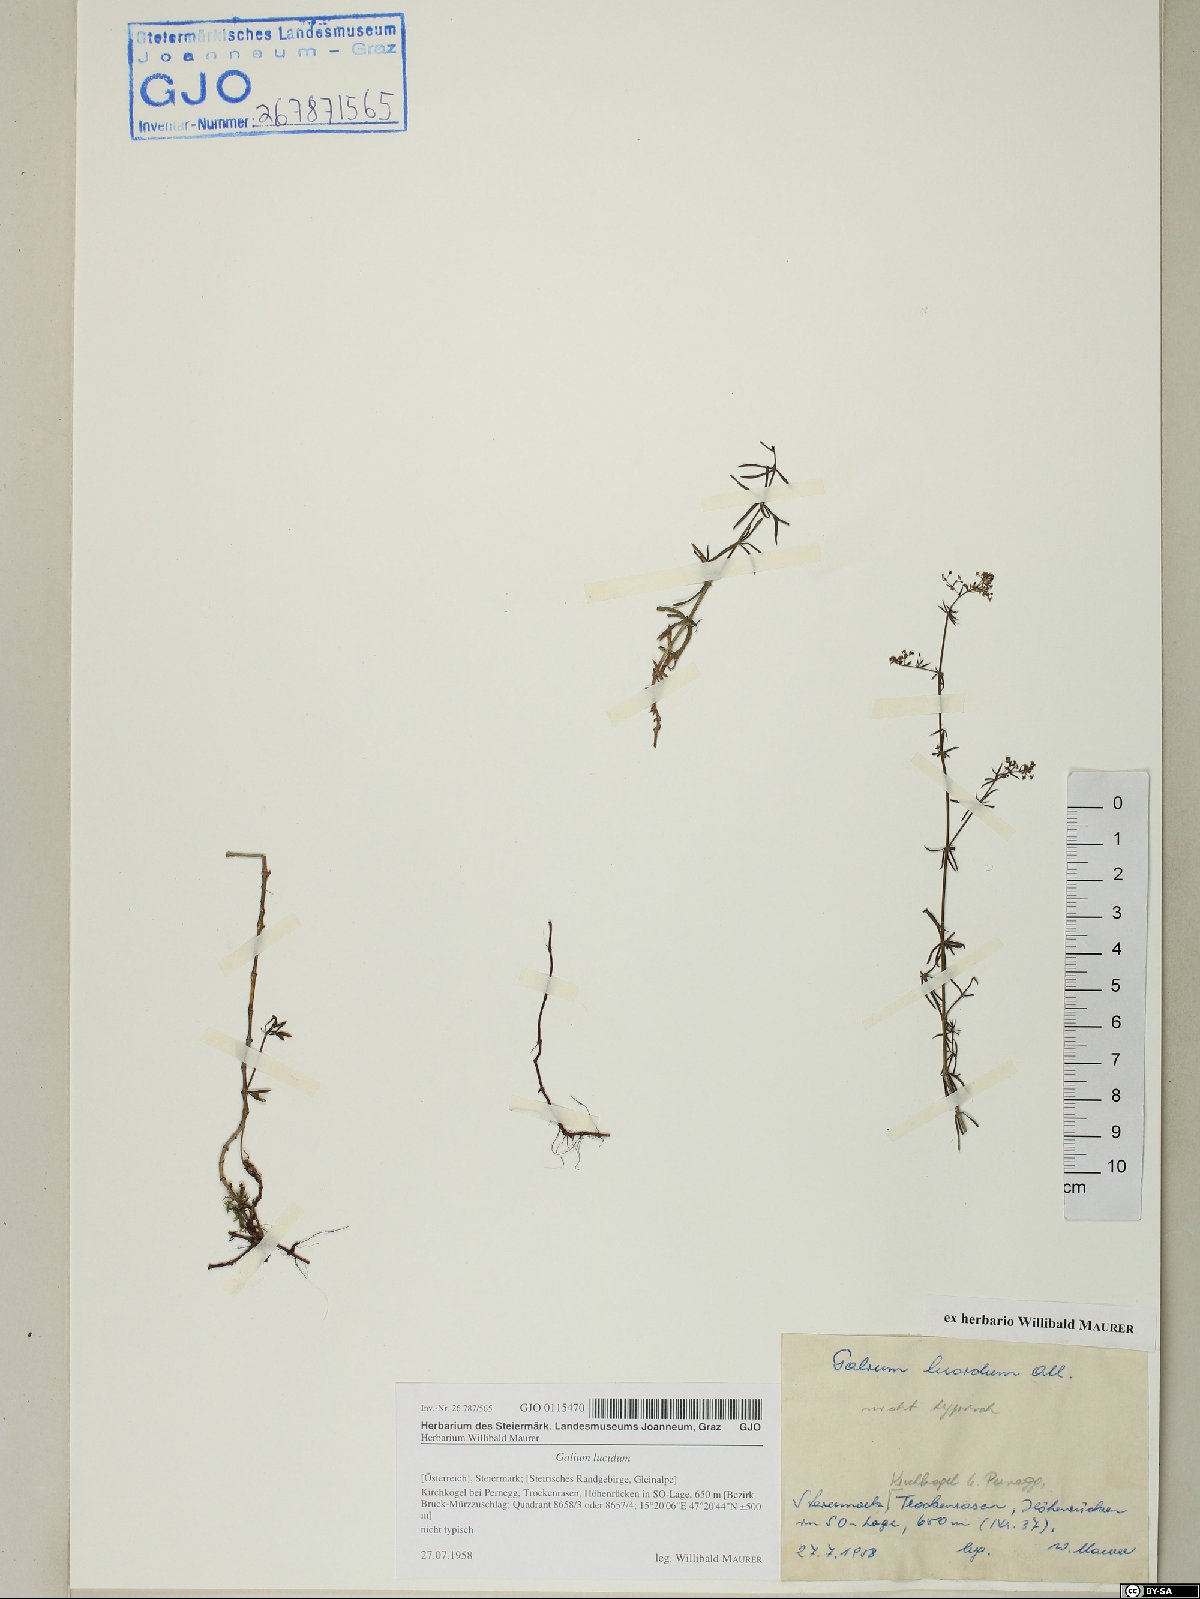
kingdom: Plantae
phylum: Tracheophyta
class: Magnoliopsida
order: Gentianales
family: Rubiaceae
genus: Galium
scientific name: Galium lucidum
